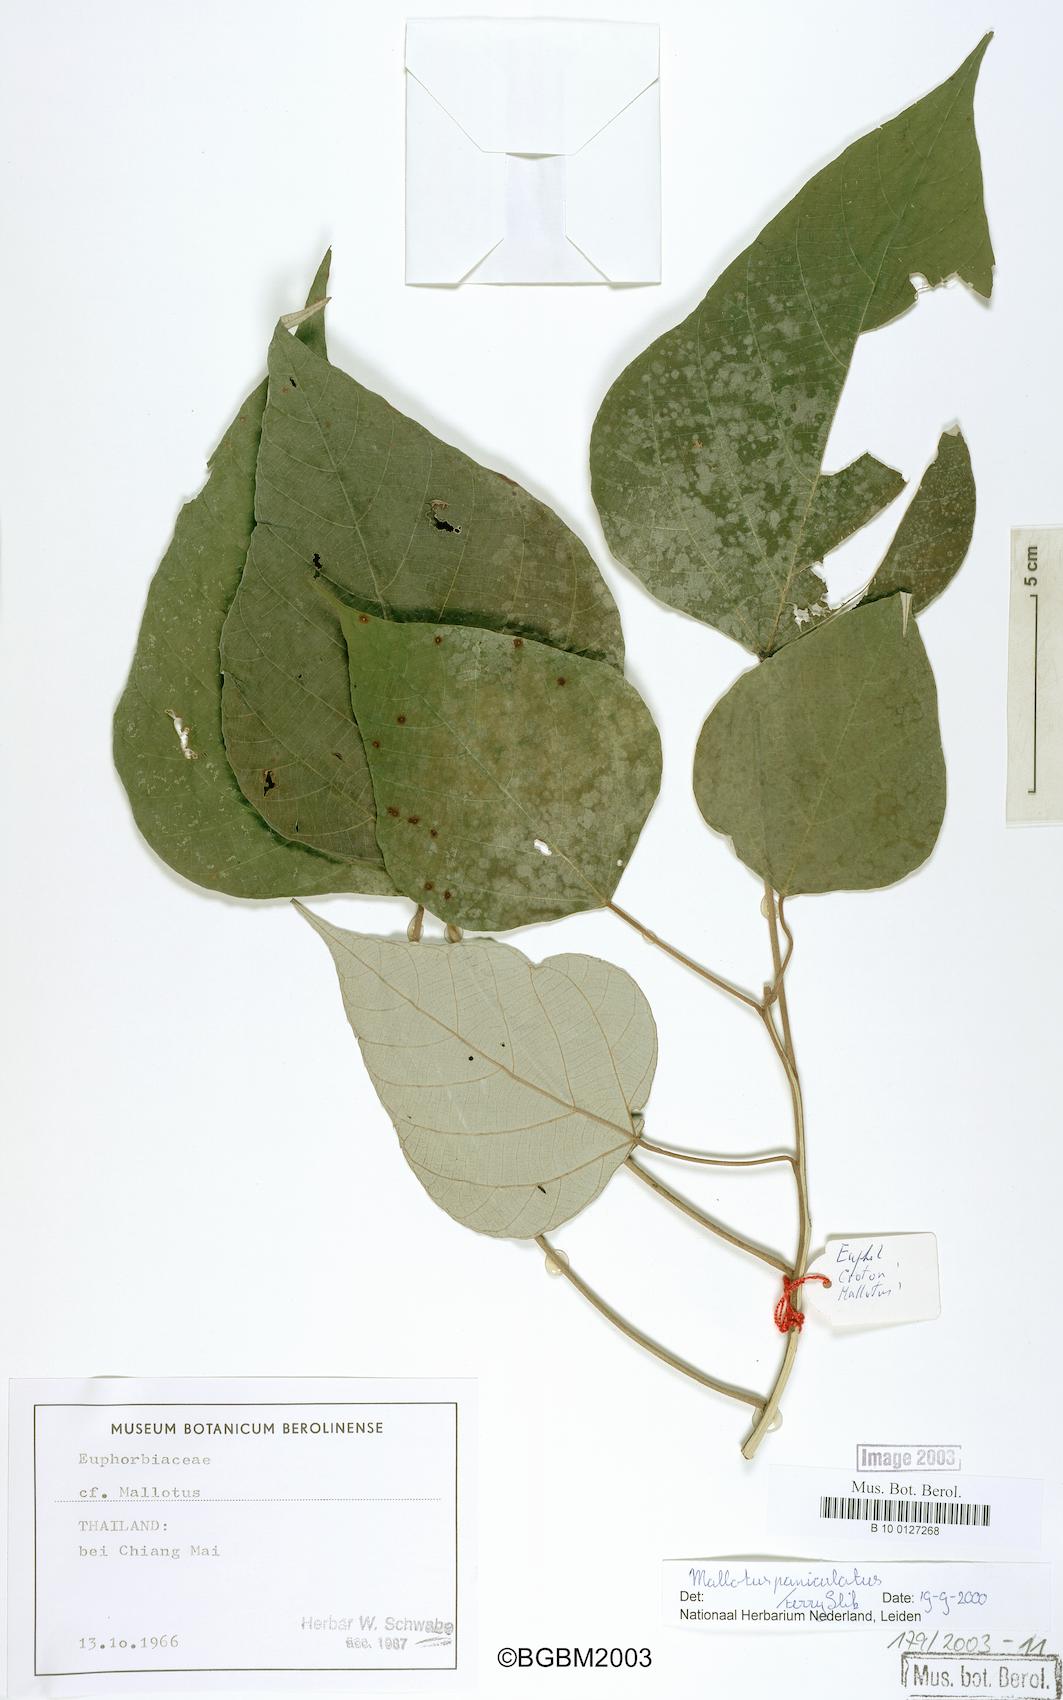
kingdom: Plantae
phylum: Tracheophyta
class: Magnoliopsida
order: Malpighiales
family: Euphorbiaceae
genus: Mallotus
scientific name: Mallotus paniculatus
